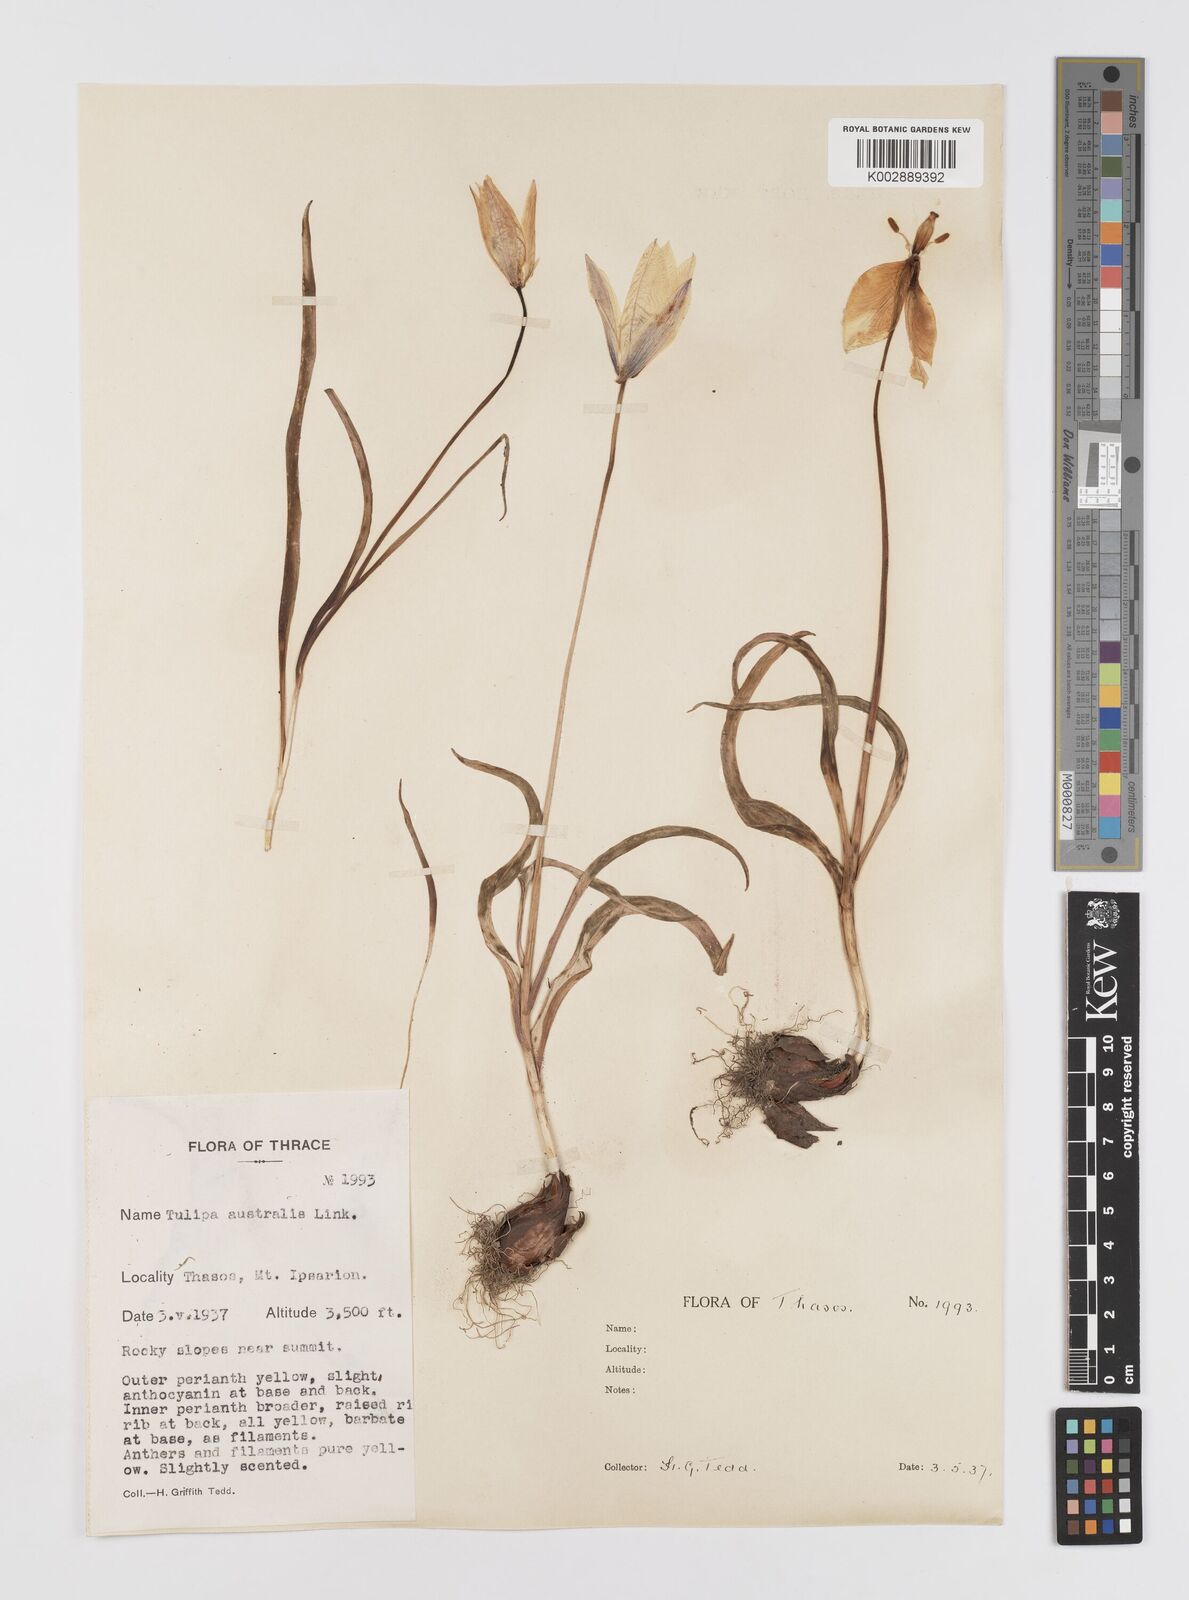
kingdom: Plantae
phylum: Tracheophyta
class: Liliopsida
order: Liliales
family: Liliaceae
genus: Tulipa
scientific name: Tulipa sylvestris
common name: Wild tulip
